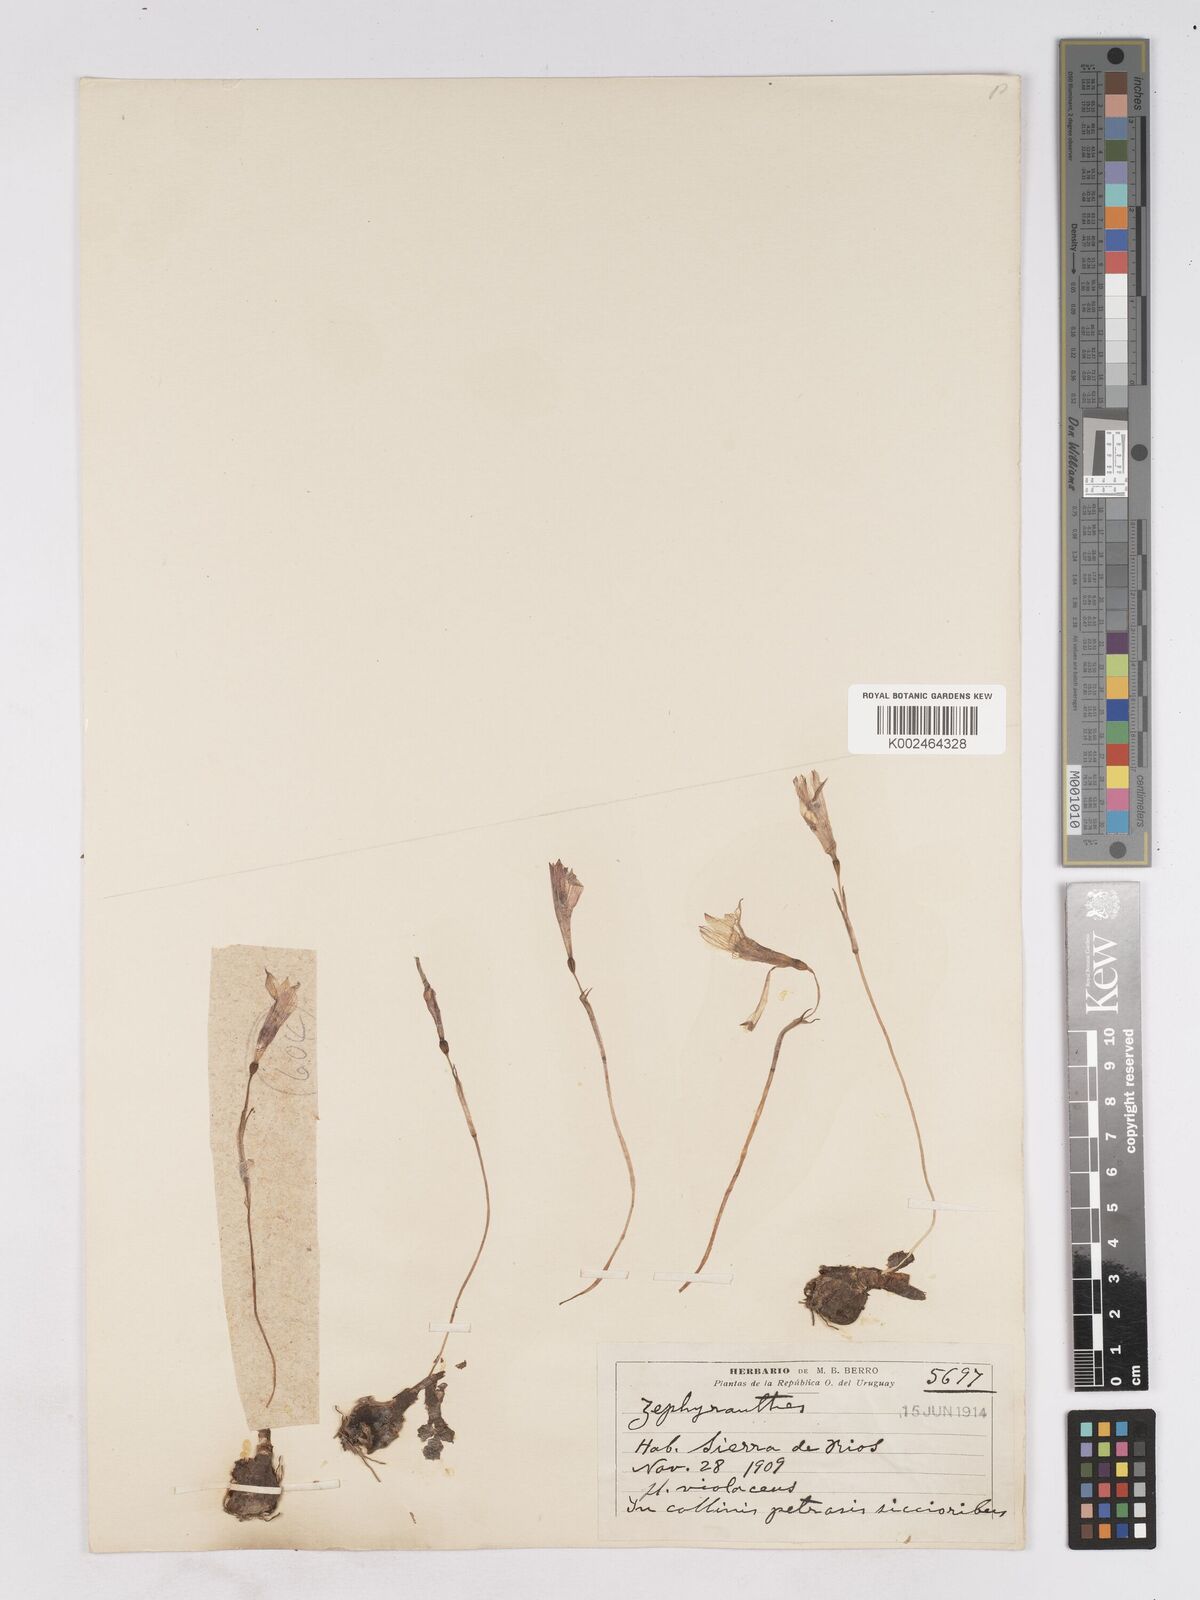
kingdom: Plantae
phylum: Tracheophyta
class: Liliopsida
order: Asparagales
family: Amaryllidaceae
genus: Zephyranthes
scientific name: Zephyranthes caerulea
